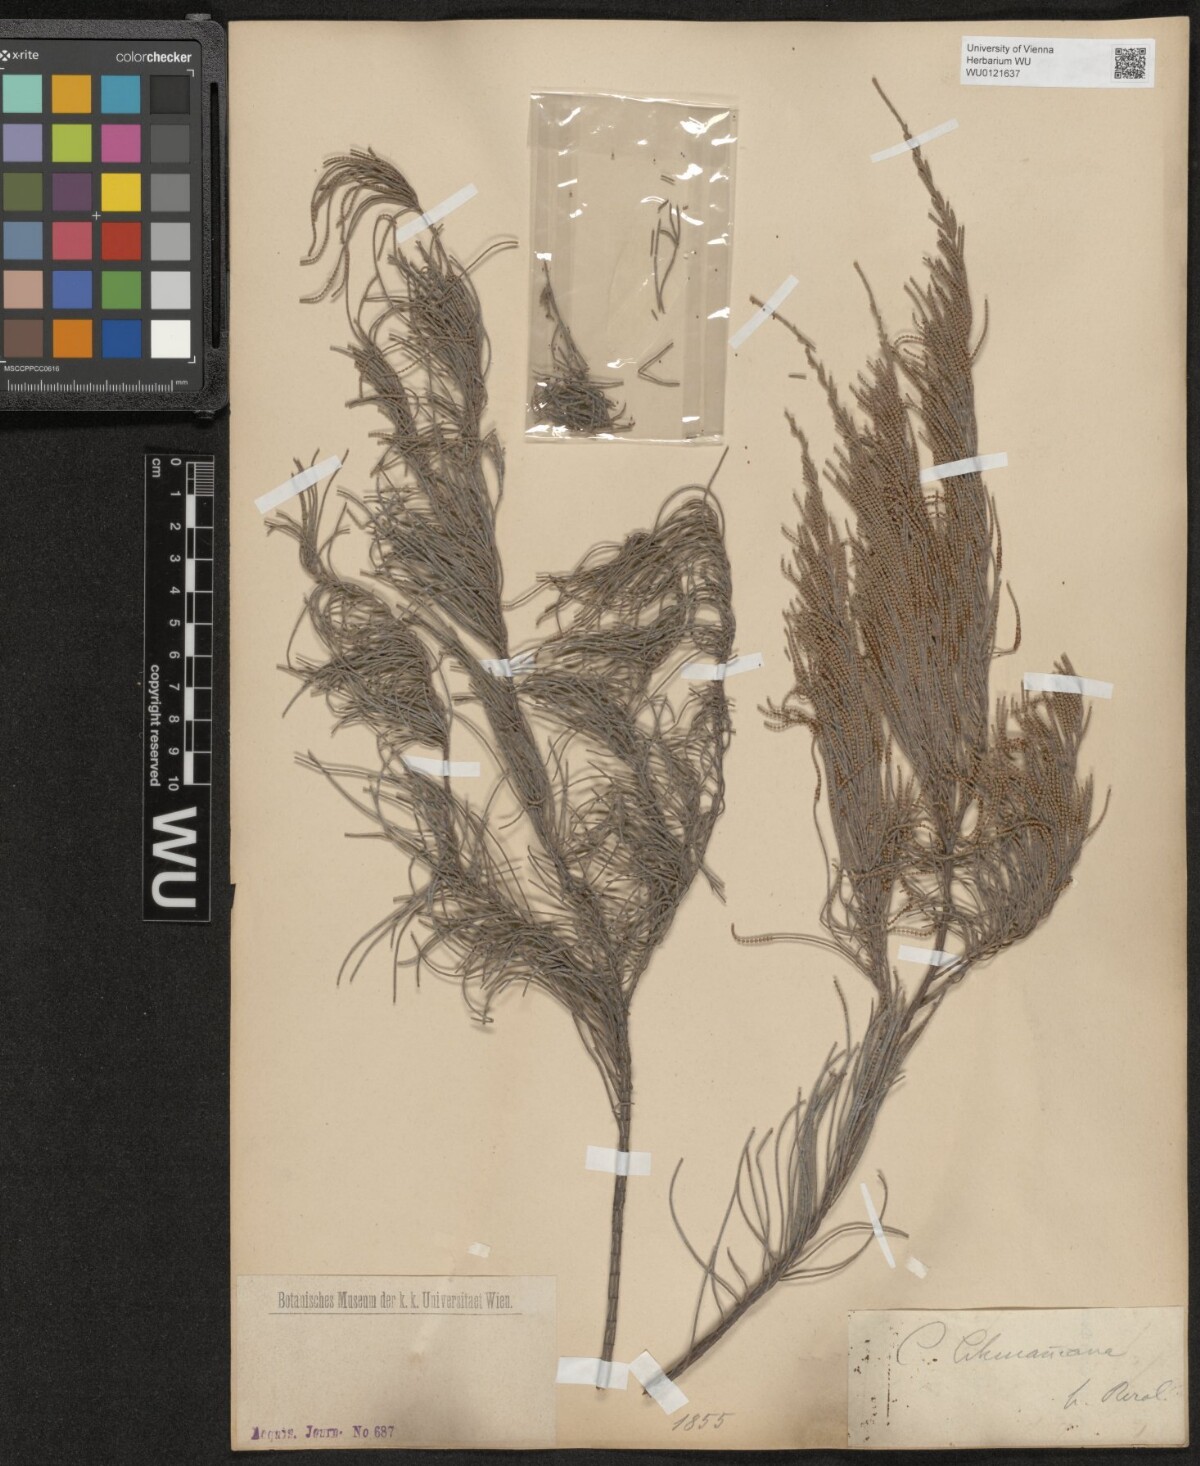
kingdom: Plantae
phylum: Tracheophyta
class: Magnoliopsida
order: Fagales
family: Casuarinaceae
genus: Allocasuarina
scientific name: Allocasuarina lehmanniana
